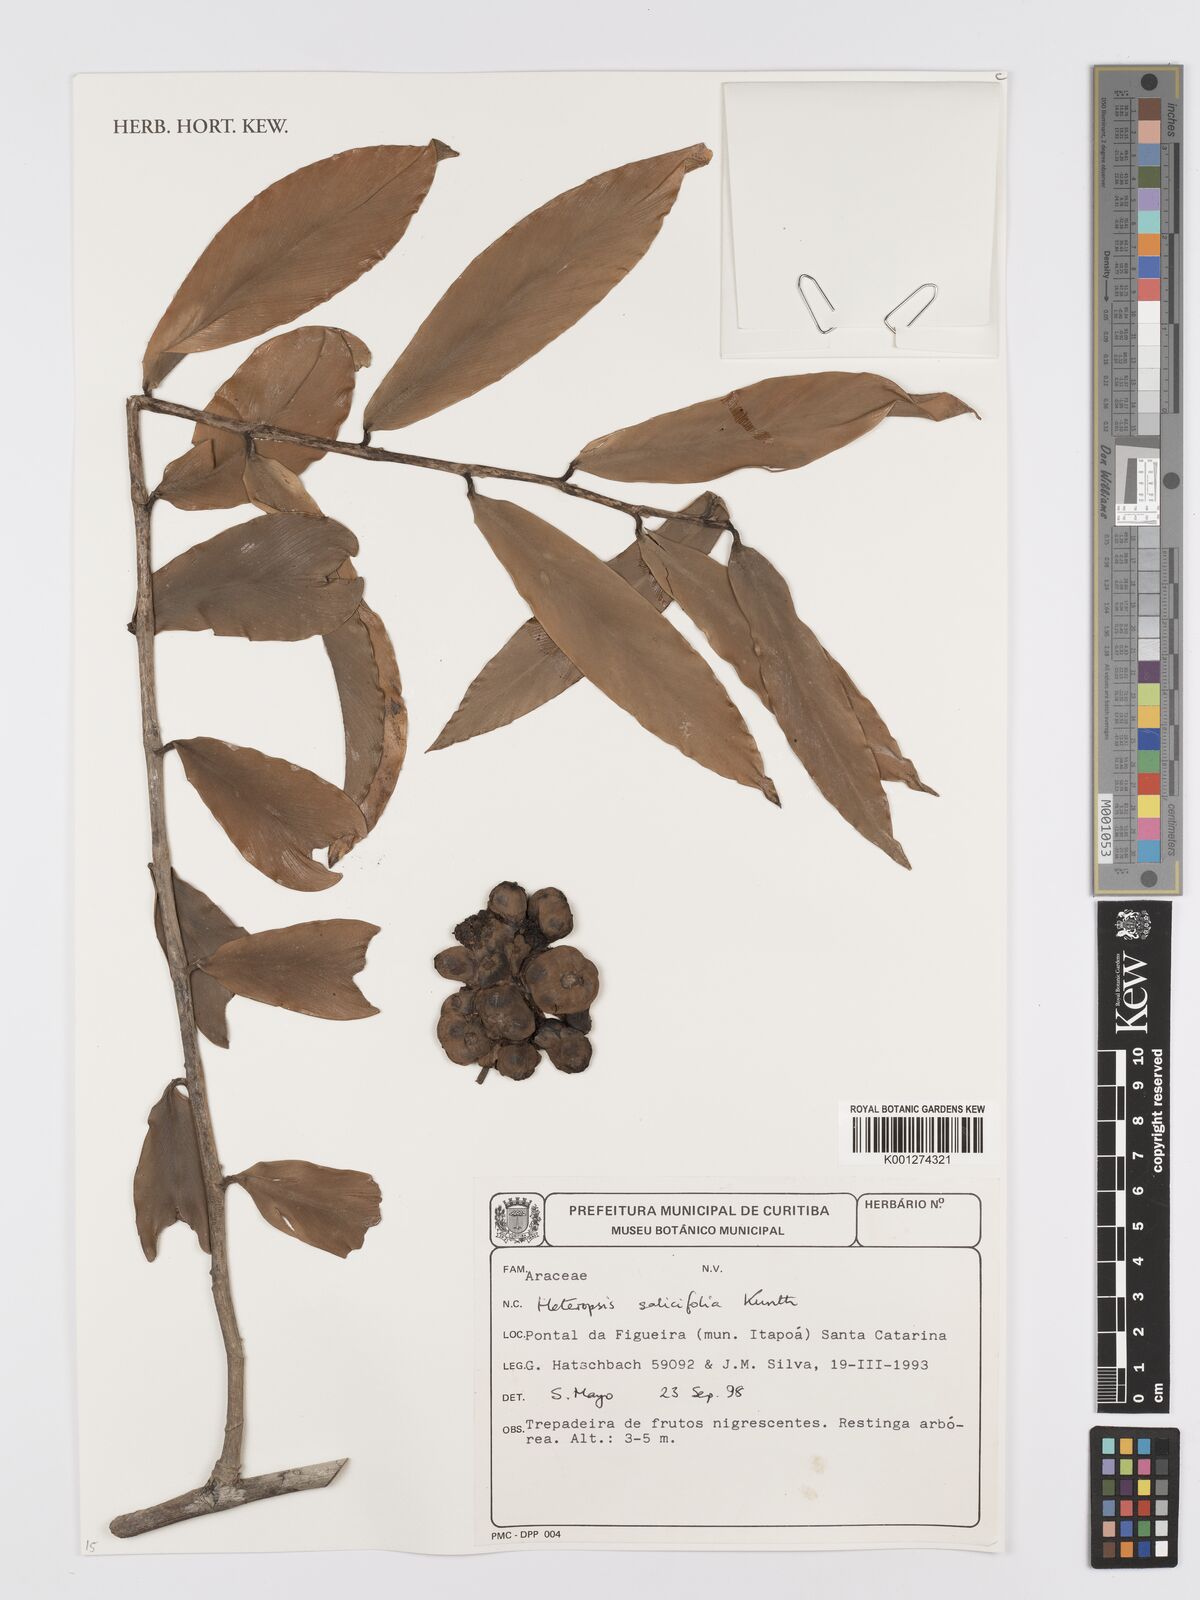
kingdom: Plantae
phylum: Tracheophyta
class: Liliopsida
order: Alismatales
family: Araceae
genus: Heteropsis
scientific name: Heteropsis salicifolia
